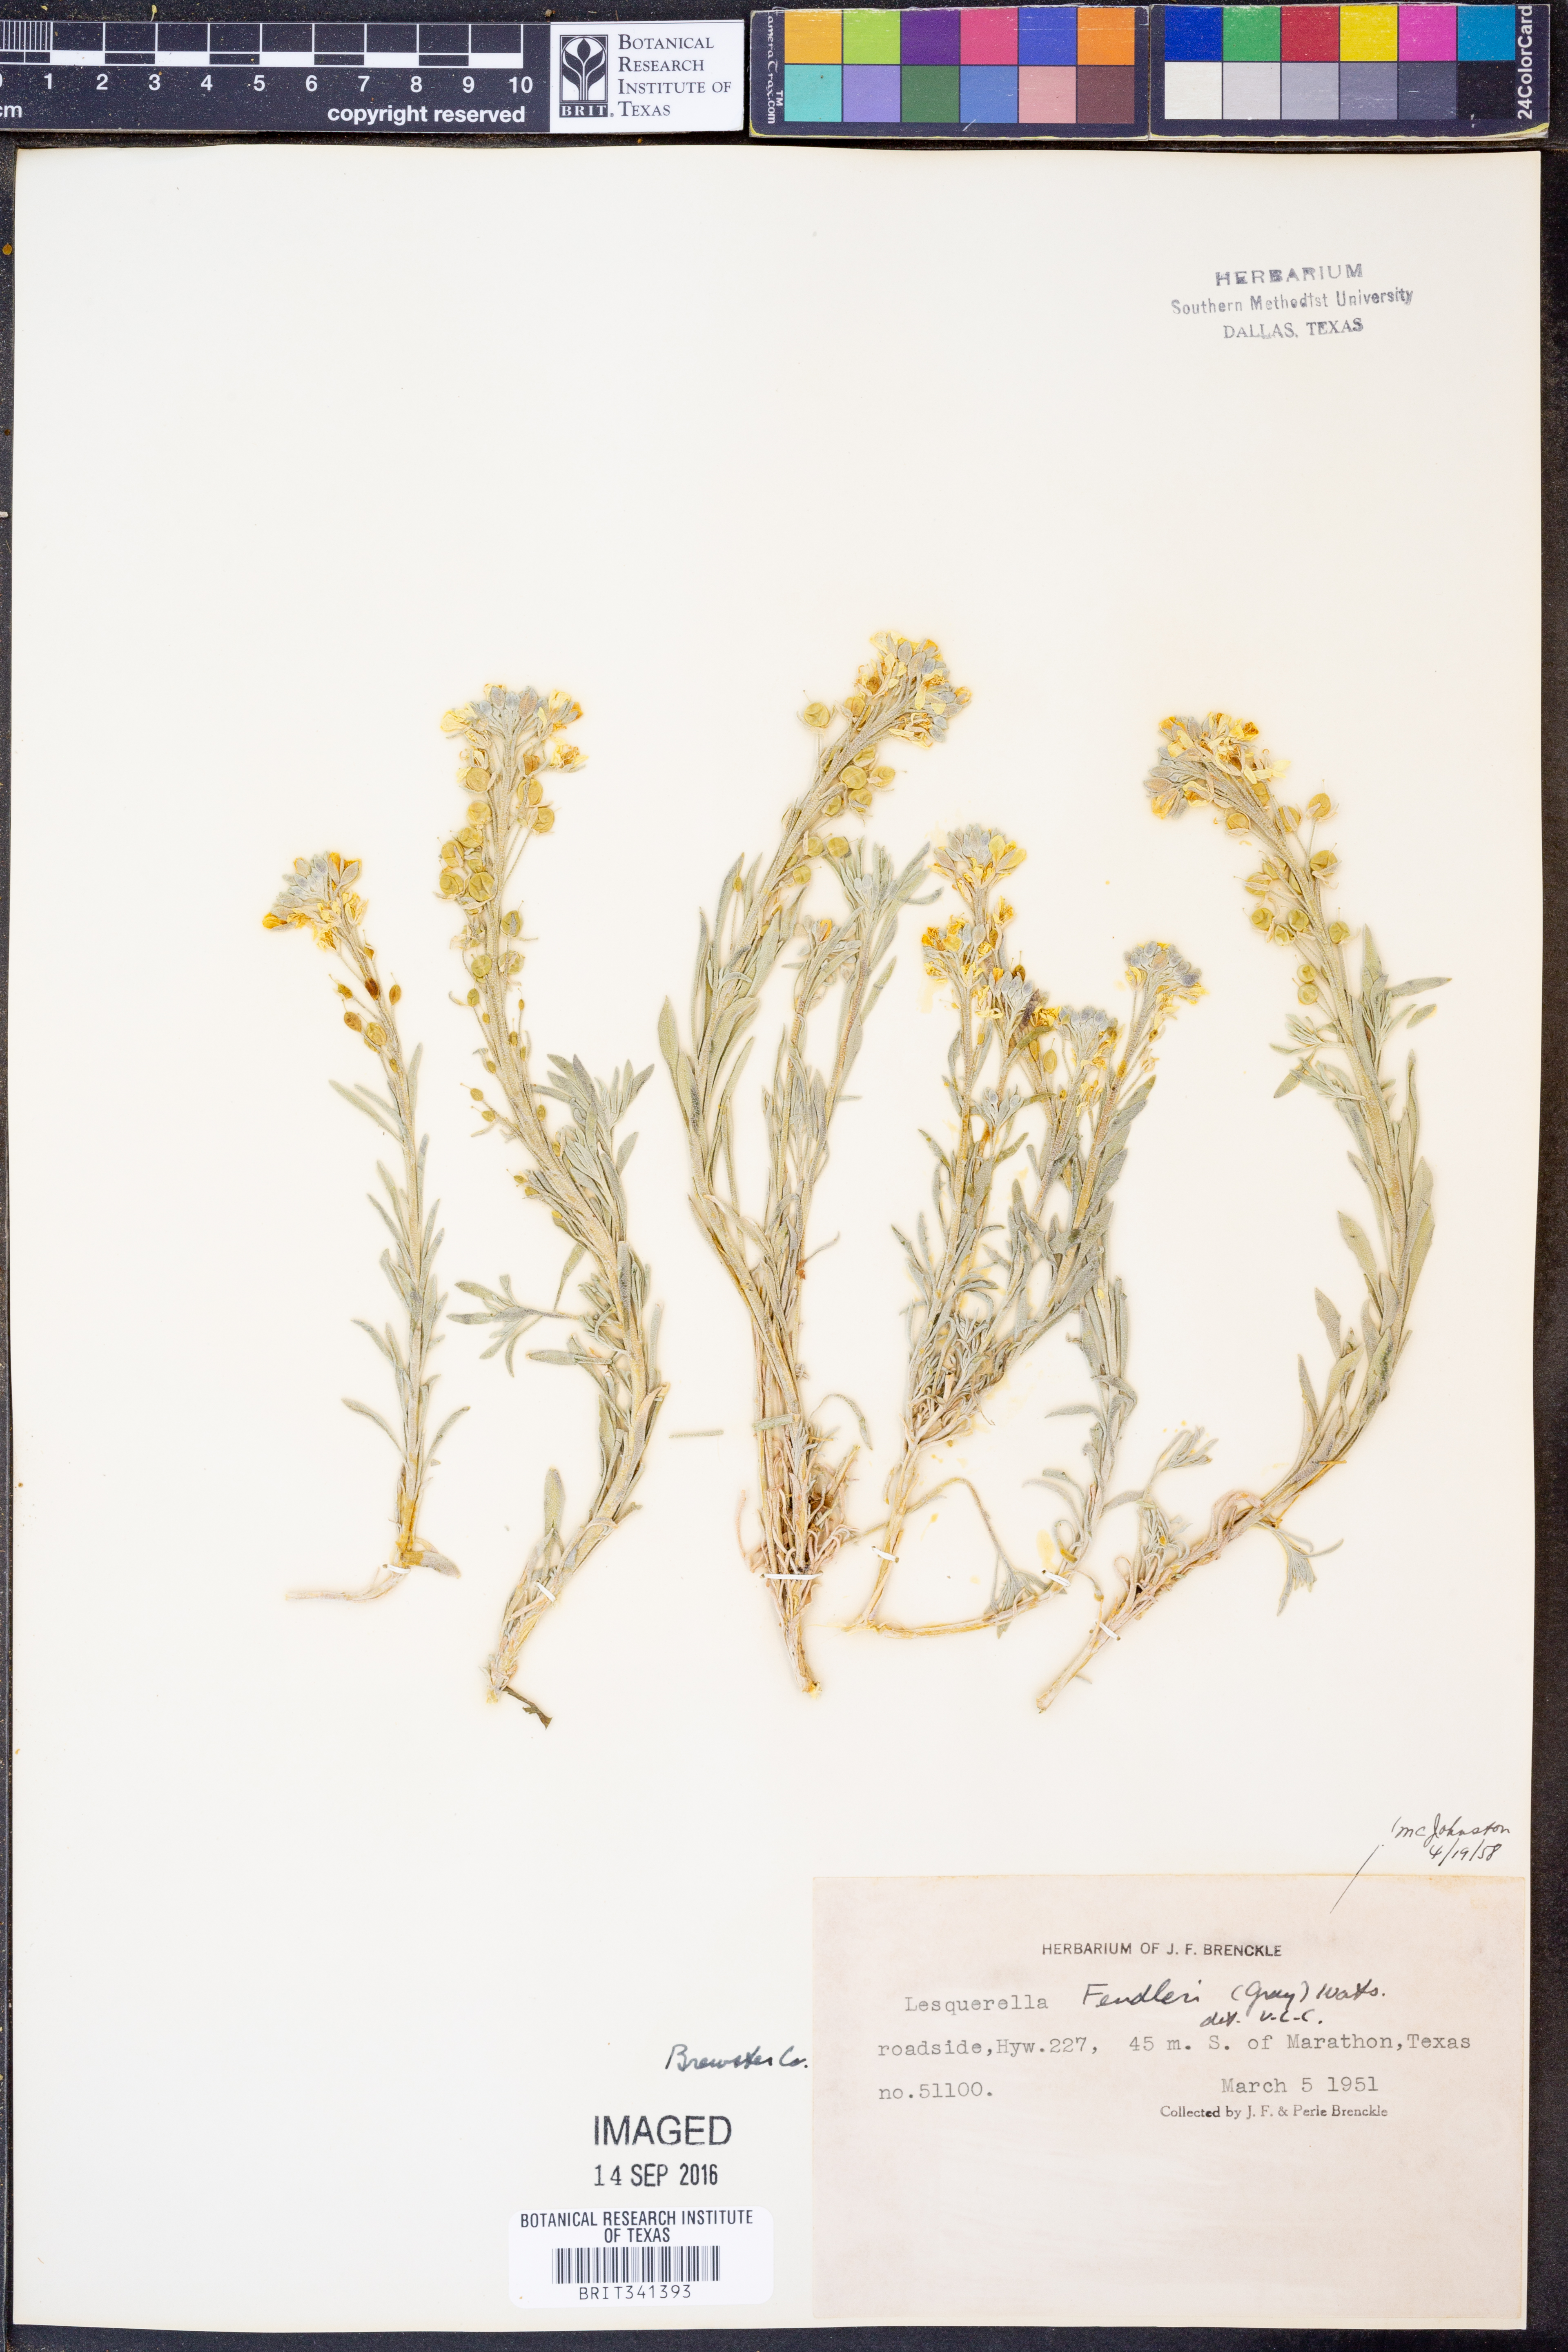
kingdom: Plantae
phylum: Tracheophyta
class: Magnoliopsida
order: Brassicales
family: Brassicaceae
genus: Physaria
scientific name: Physaria fendleri
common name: Fendler's bladderpod
